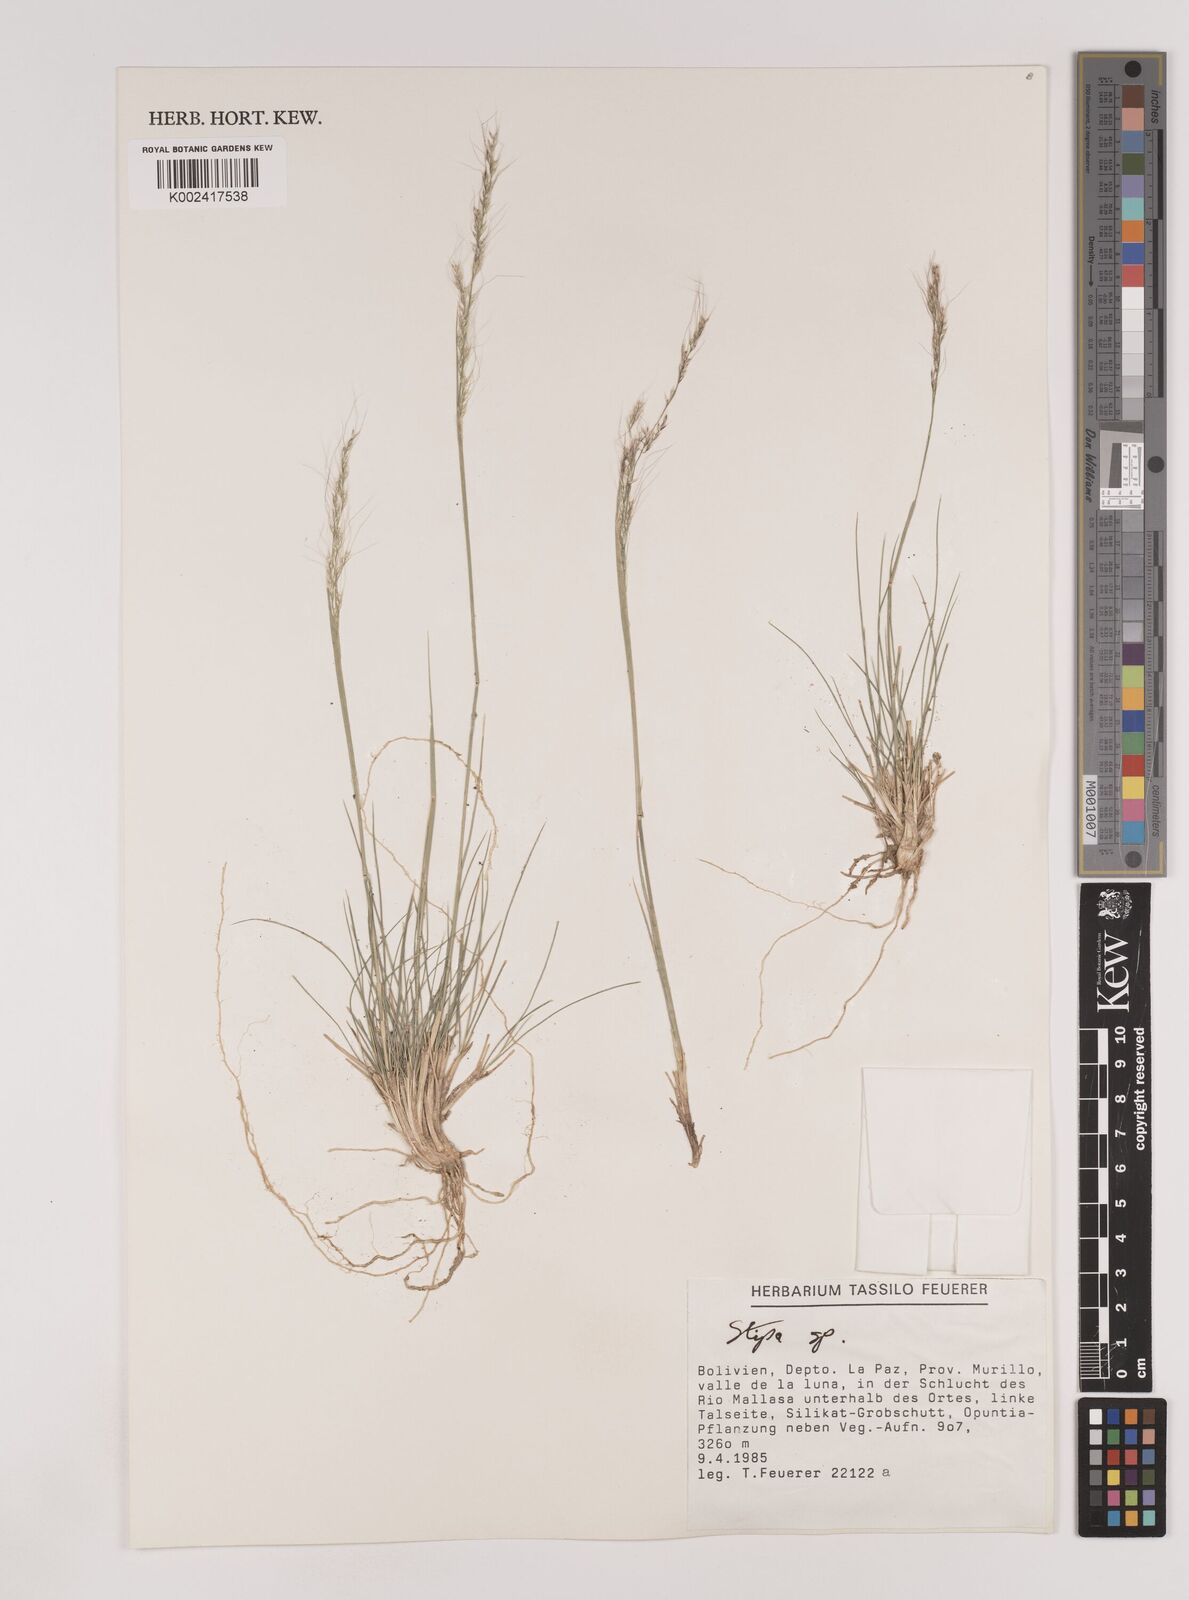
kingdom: Plantae
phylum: Tracheophyta
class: Liliopsida
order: Poales
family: Poaceae
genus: Nassella
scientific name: Nassella pubiflora
